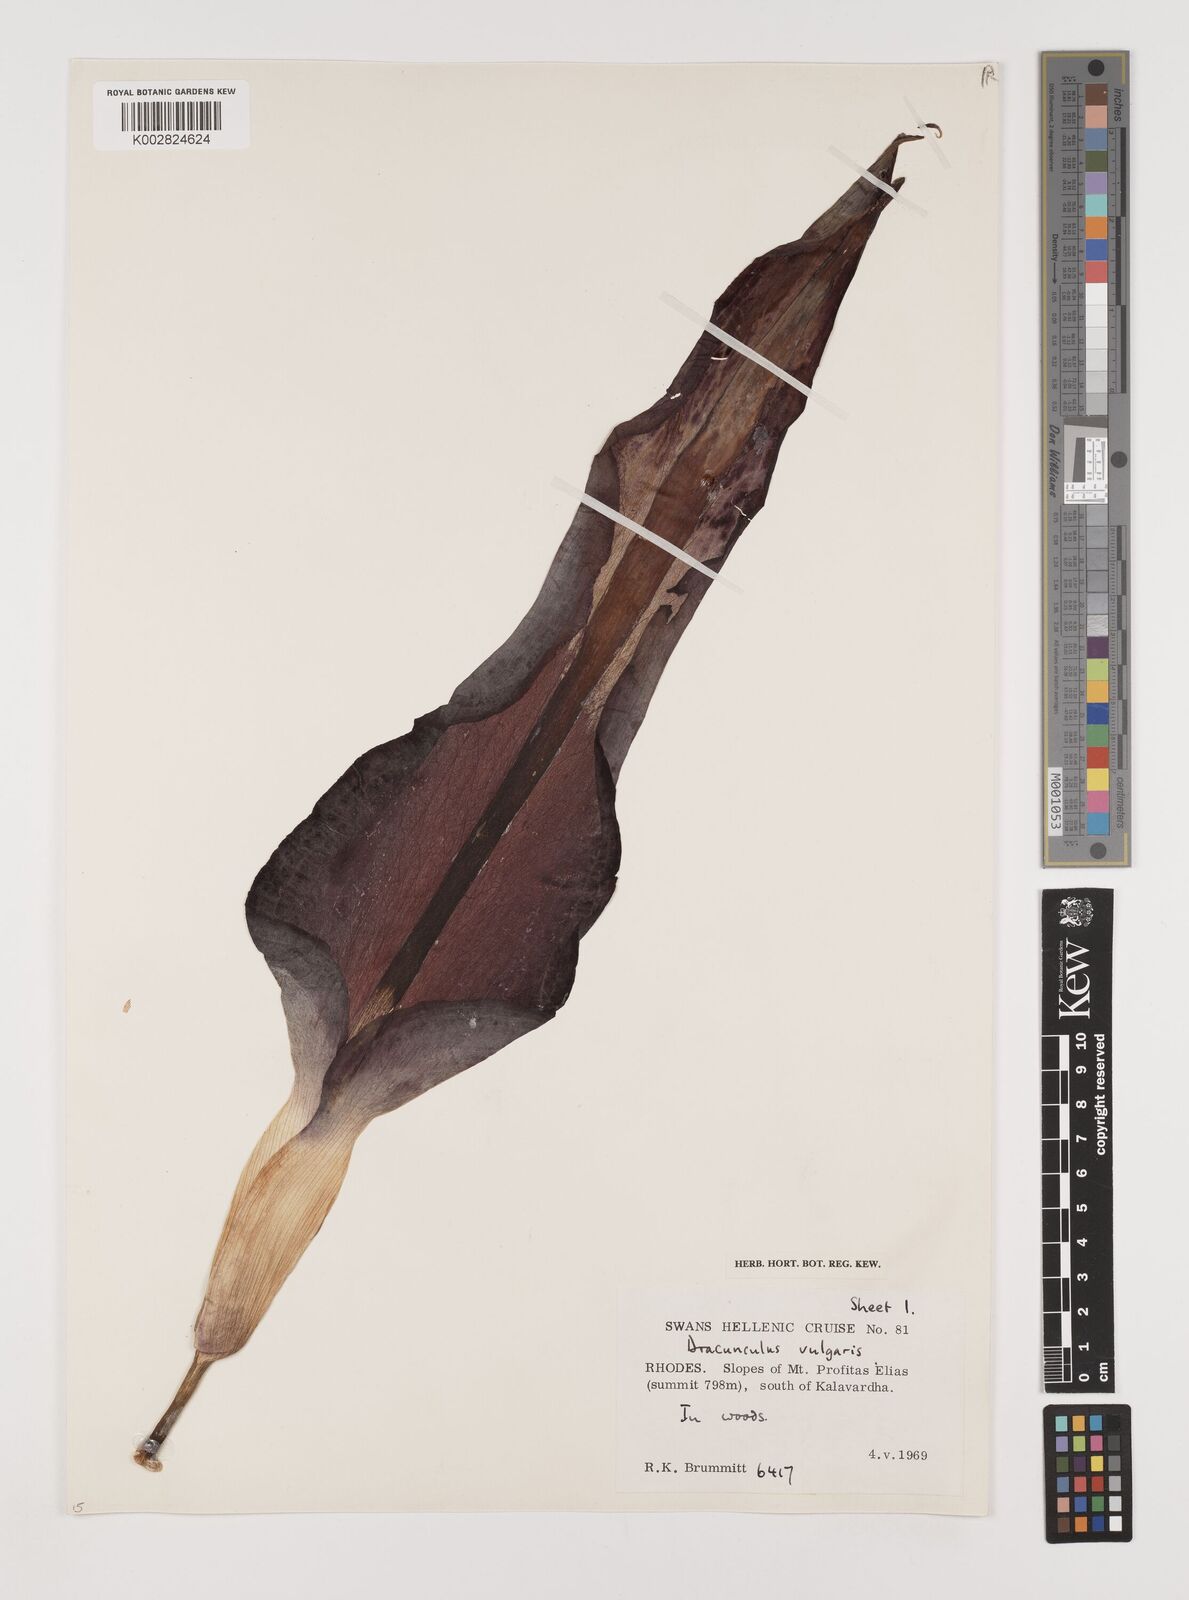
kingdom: Plantae
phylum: Tracheophyta
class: Liliopsida
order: Alismatales
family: Araceae
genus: Dracunculus
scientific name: Dracunculus vulgaris
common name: Dragon arum
